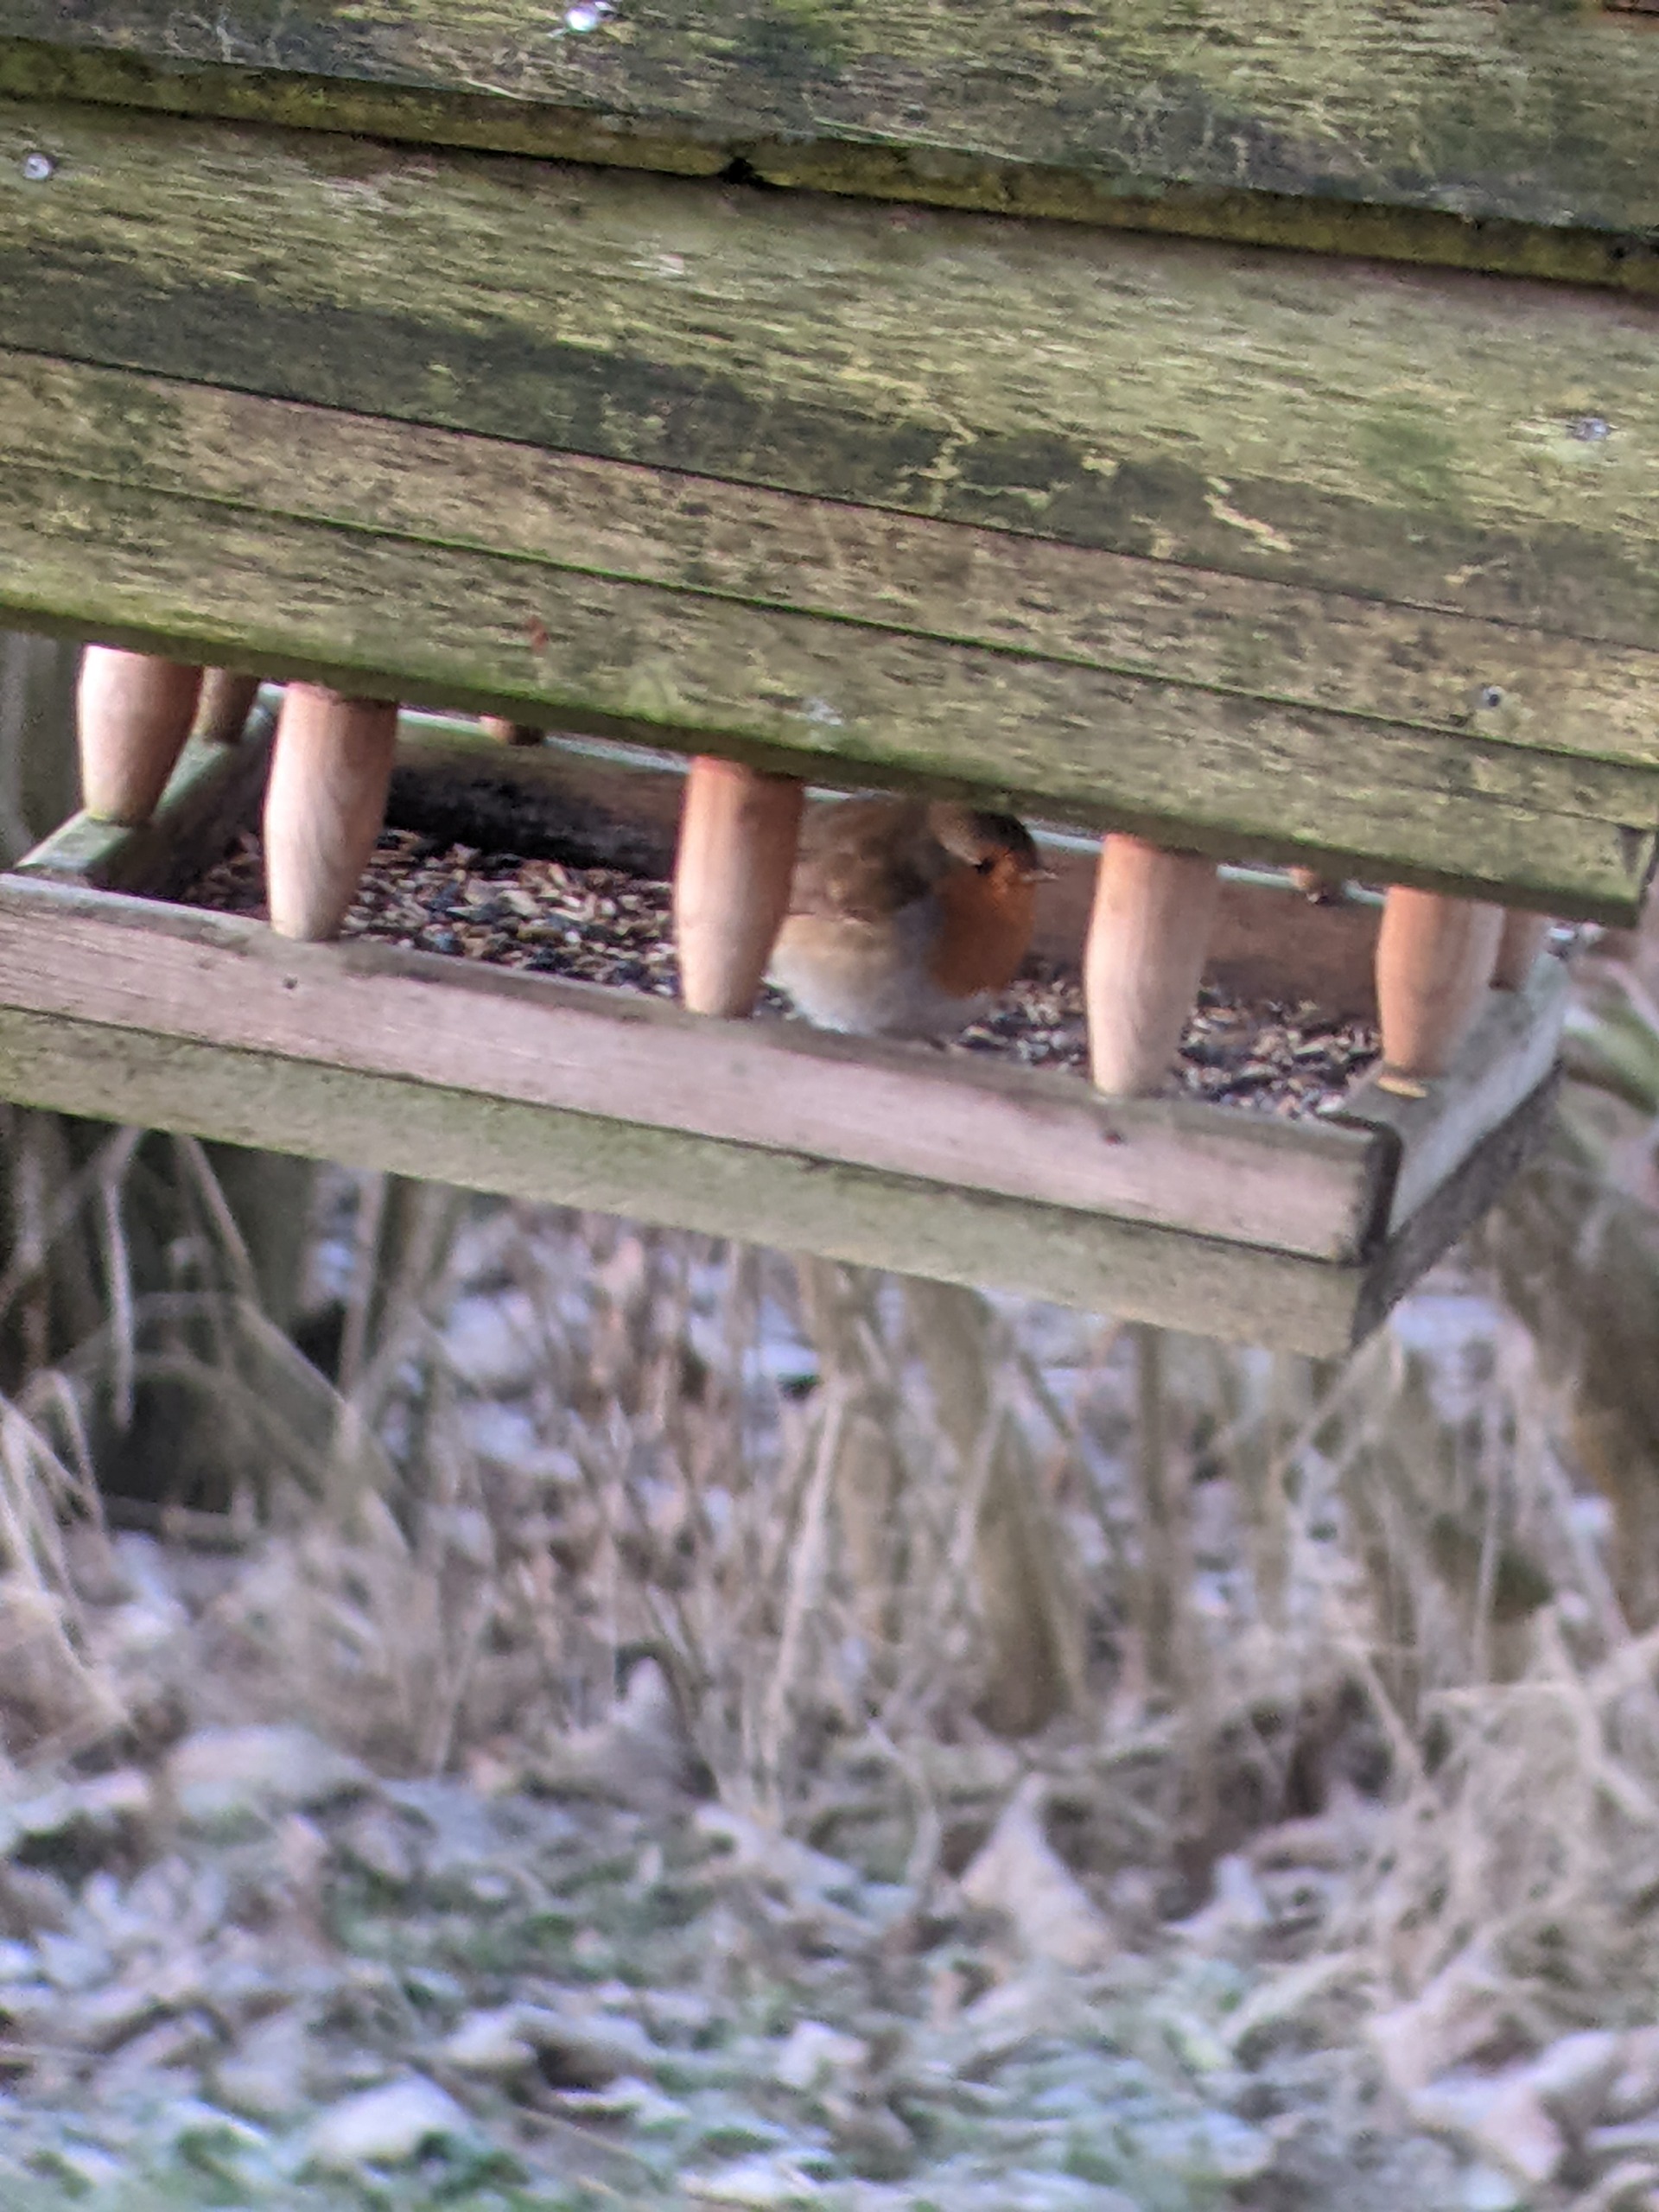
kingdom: Animalia
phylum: Chordata
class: Aves
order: Passeriformes
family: Muscicapidae
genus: Erithacus
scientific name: Erithacus rubecula
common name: Rødhals/rødkælk
